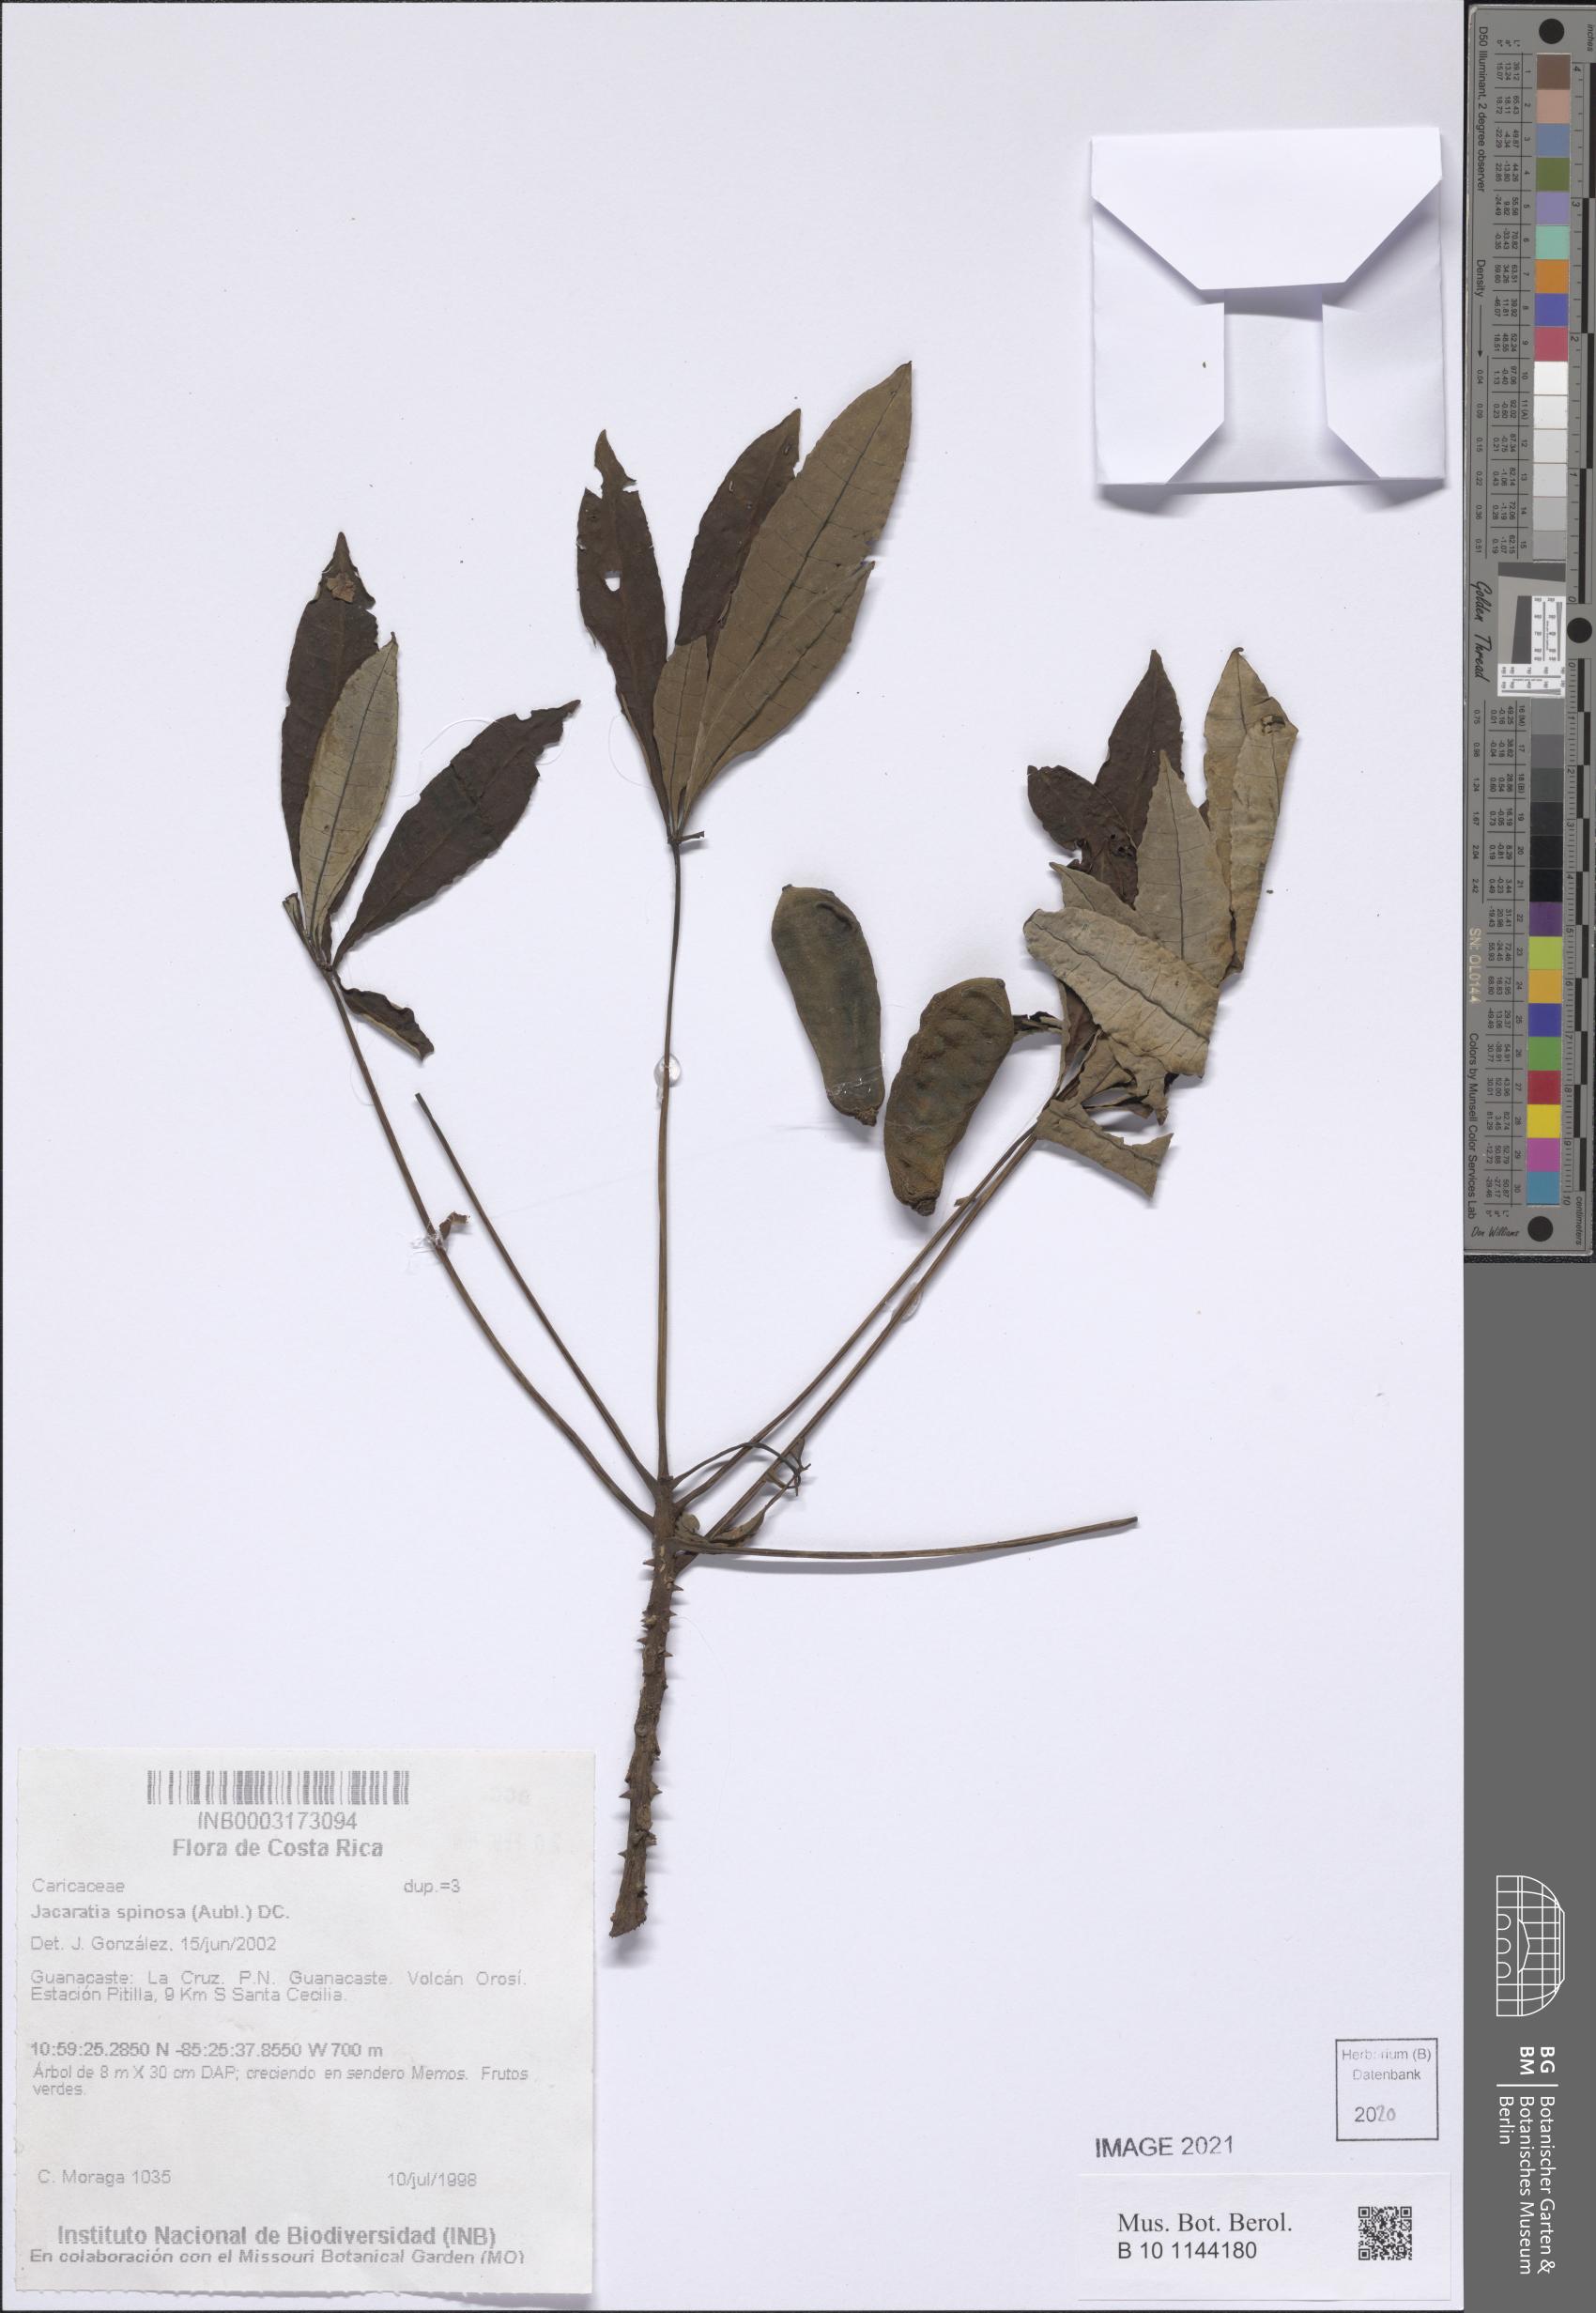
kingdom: Plantae
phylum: Tracheophyta
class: Magnoliopsida
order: Brassicales
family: Caricaceae
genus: Jacaratia
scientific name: Jacaratia spinosa
